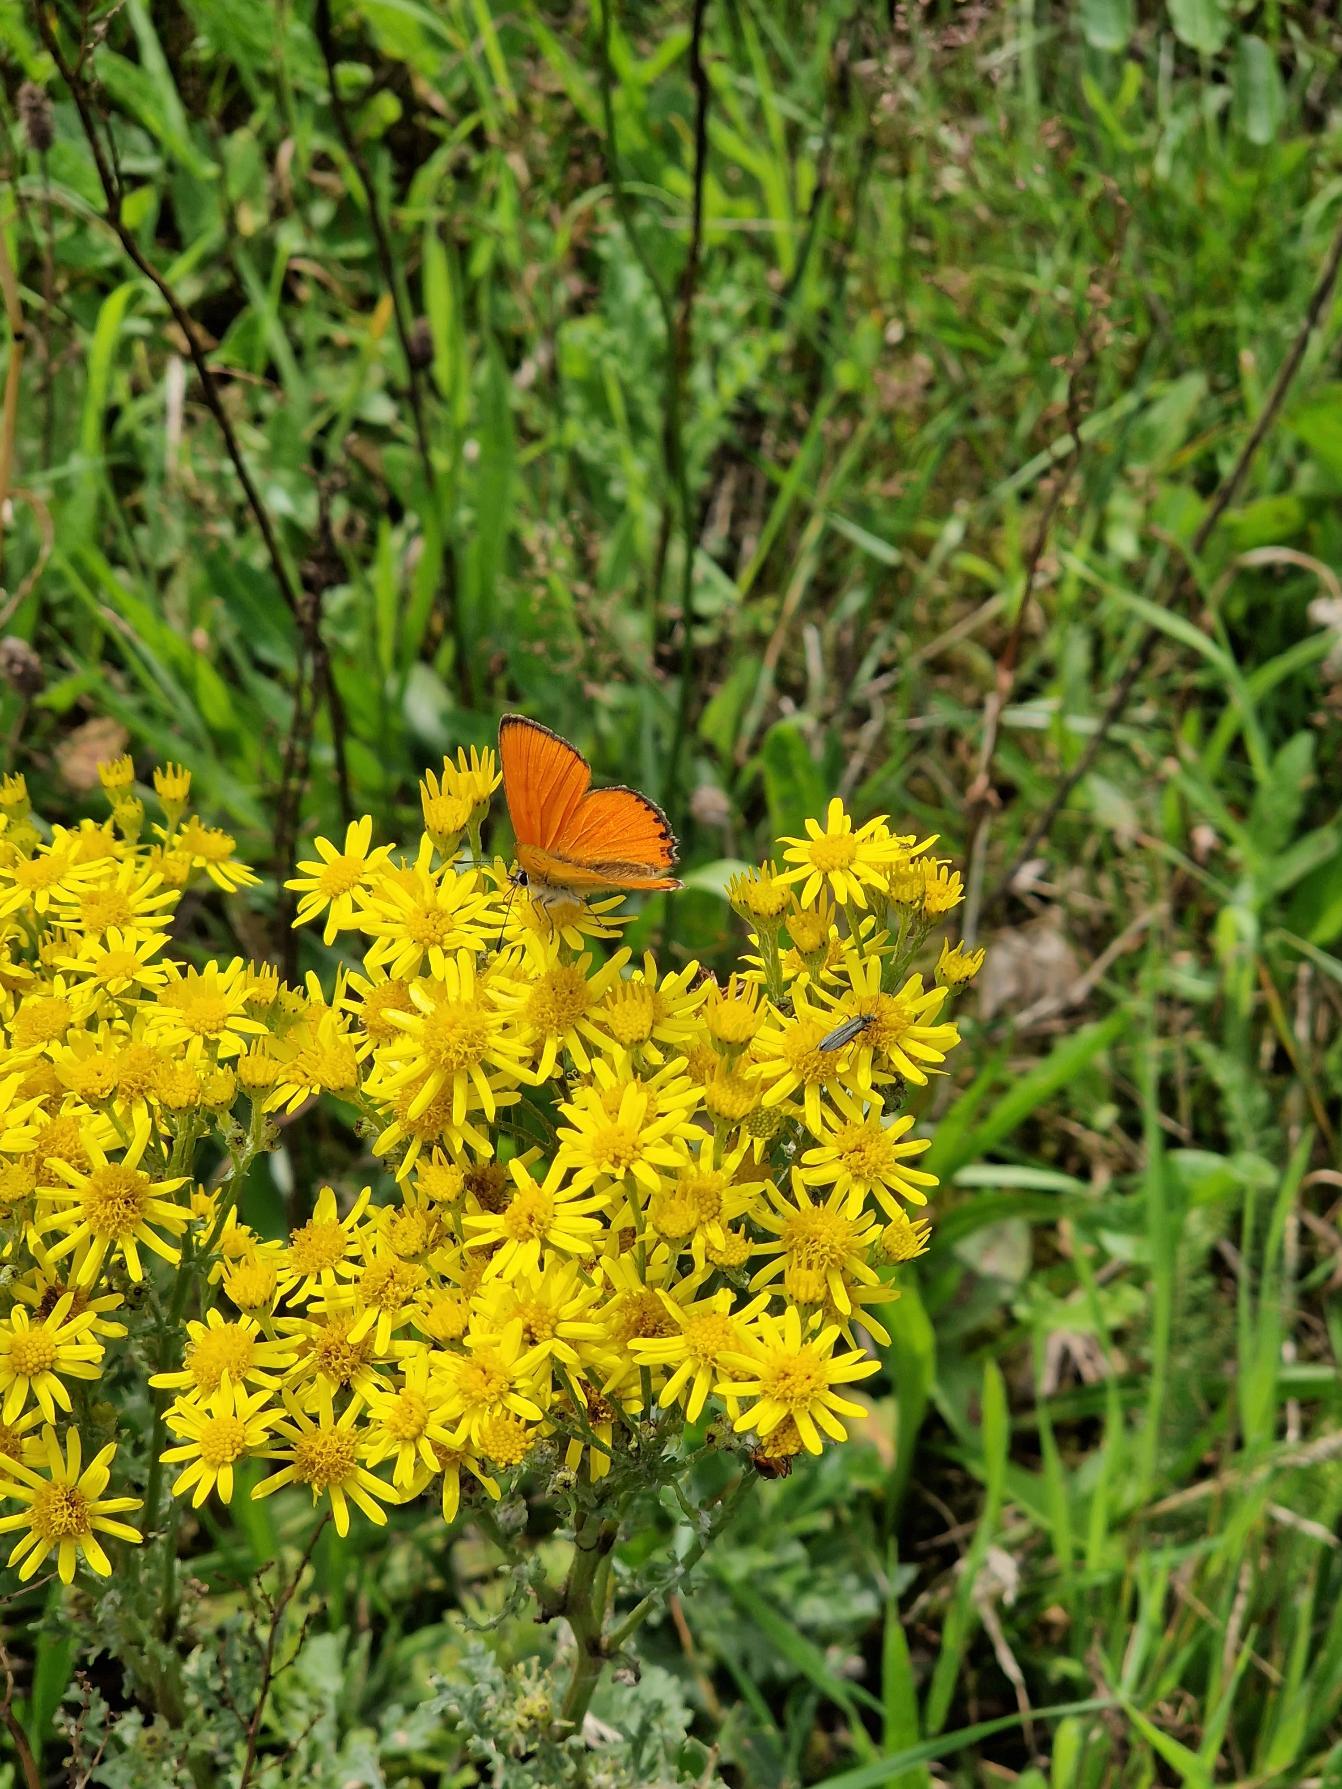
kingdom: Animalia
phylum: Arthropoda
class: Insecta
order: Lepidoptera
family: Lycaenidae
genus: Lycaena
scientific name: Lycaena virgaureae
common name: Dukatsommerfugl
